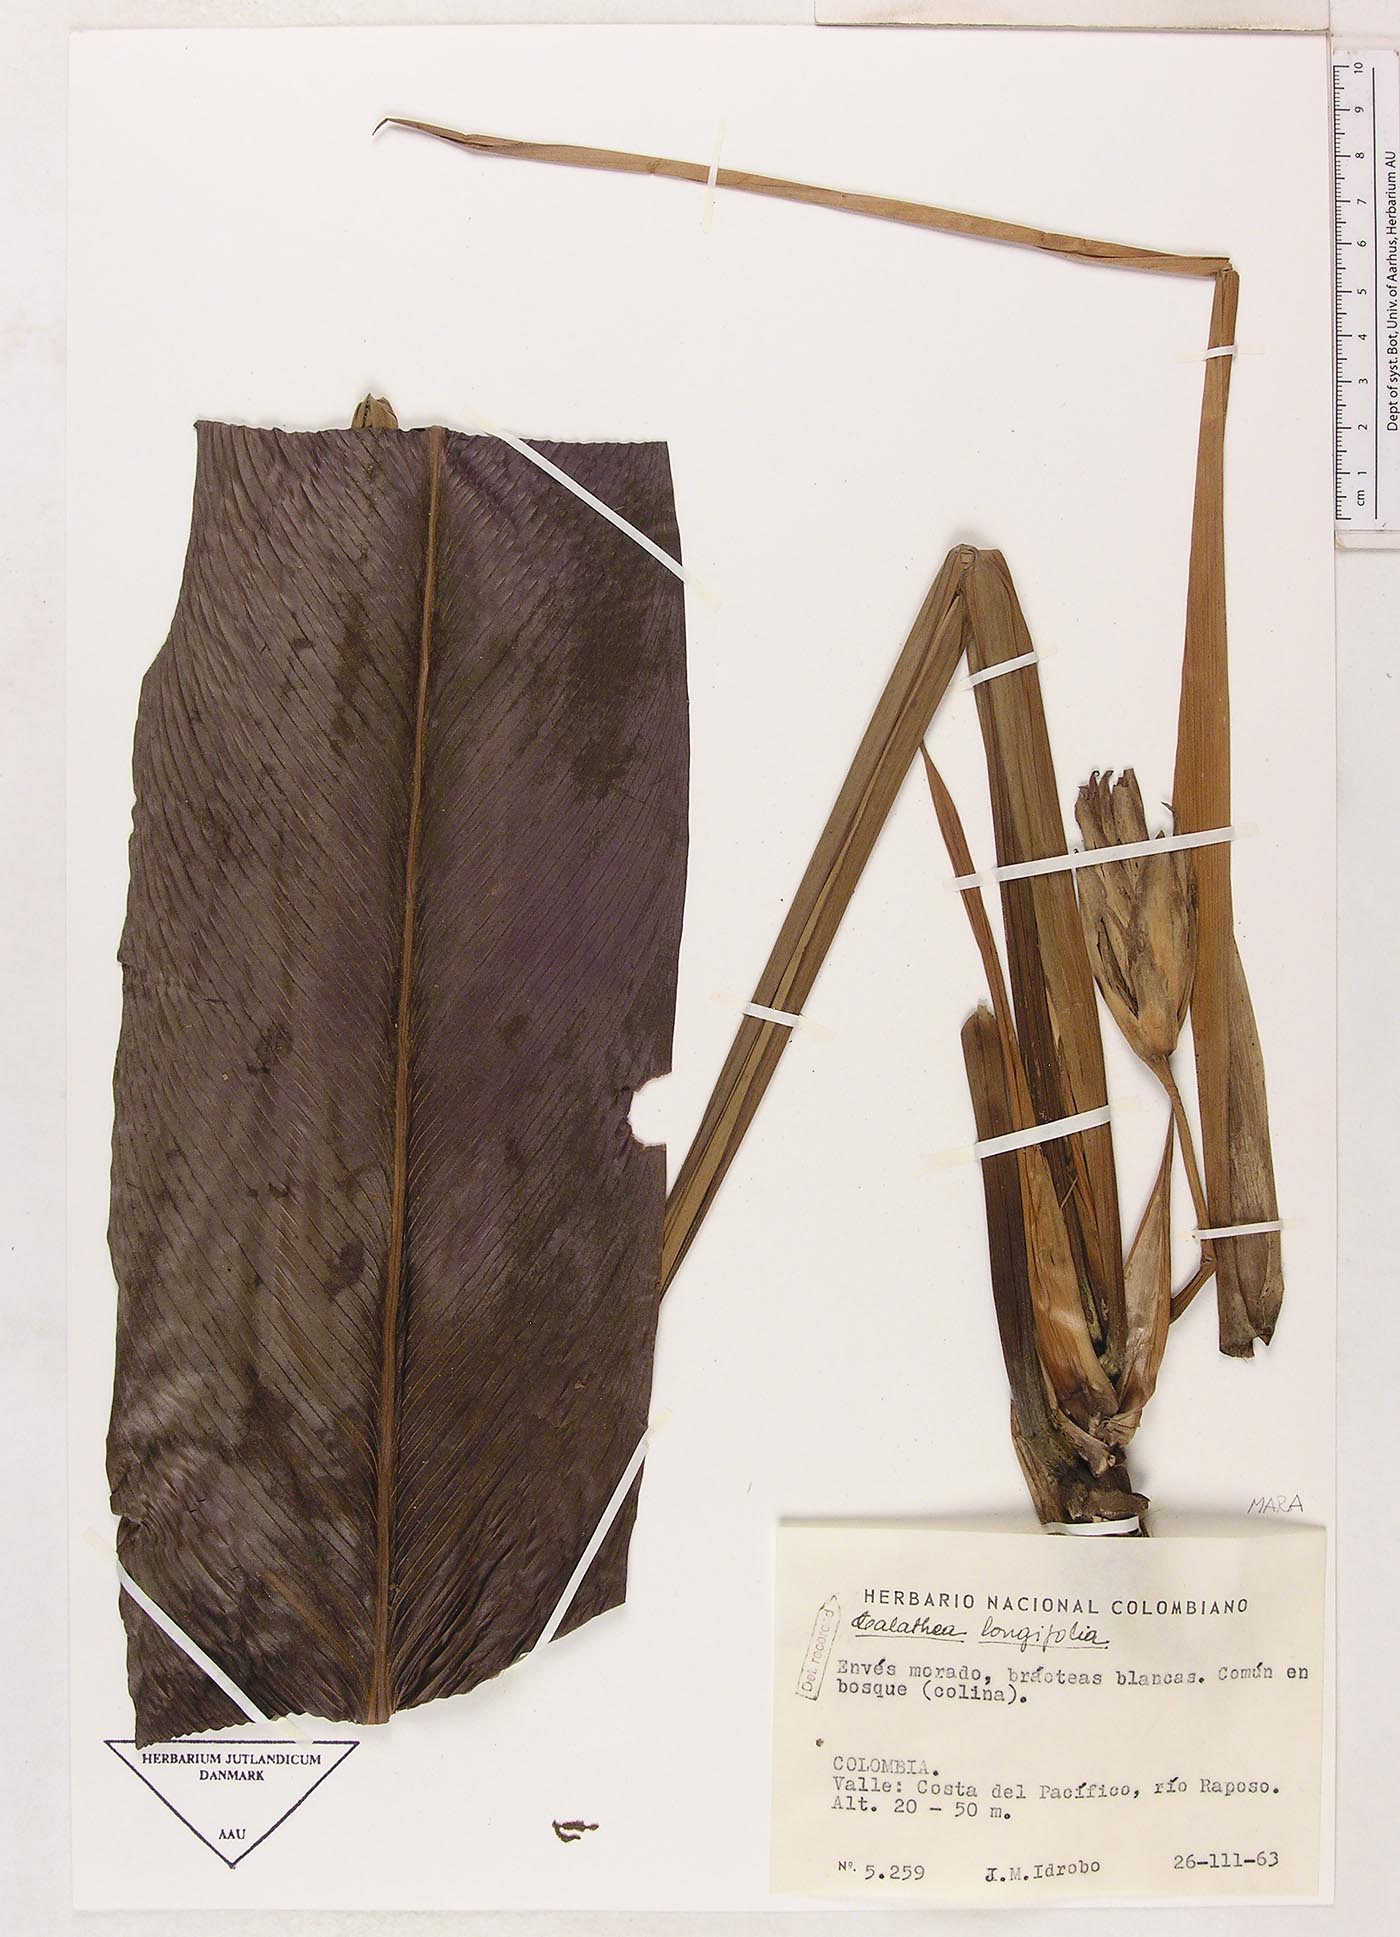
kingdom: Plantae
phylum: Tracheophyta
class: Liliopsida
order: Zingiberales
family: Marantaceae
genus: Goeppertia
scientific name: Goeppertia macilenta
